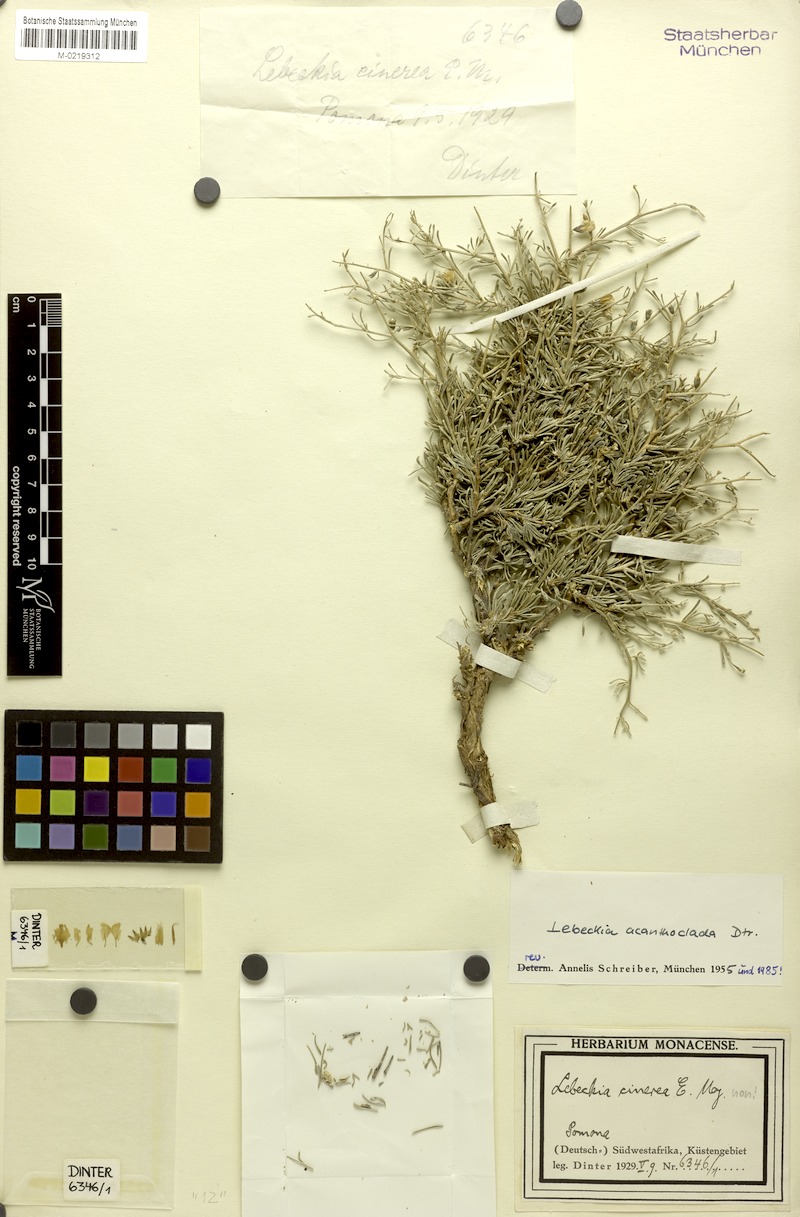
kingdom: Plantae
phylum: Tracheophyta
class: Magnoliopsida
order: Fabales
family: Fabaceae
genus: Calobota
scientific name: Calobota acanthoclada
